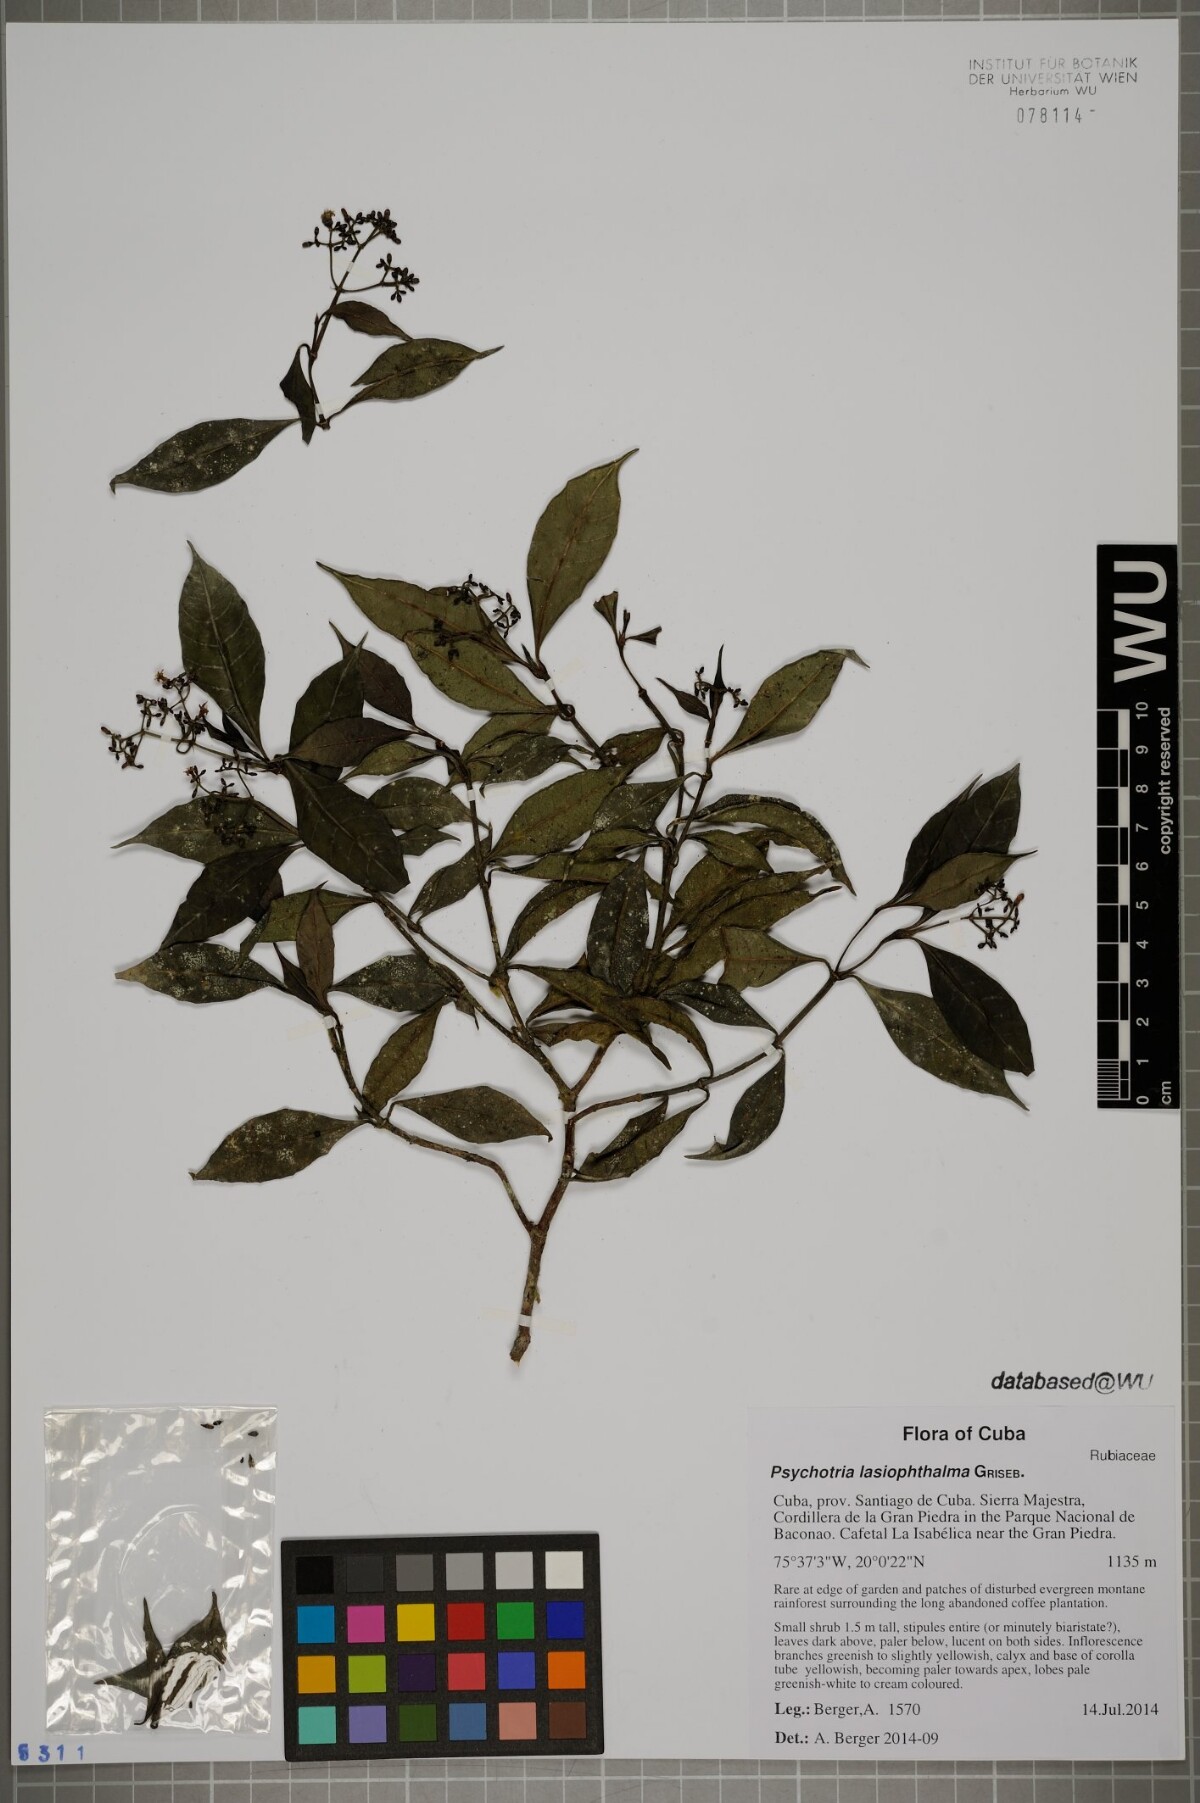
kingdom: Plantae
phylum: Tracheophyta
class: Magnoliopsida
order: Gentianales
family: Rubiaceae
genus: Psychotria
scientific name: Psychotria lasiophthalma
